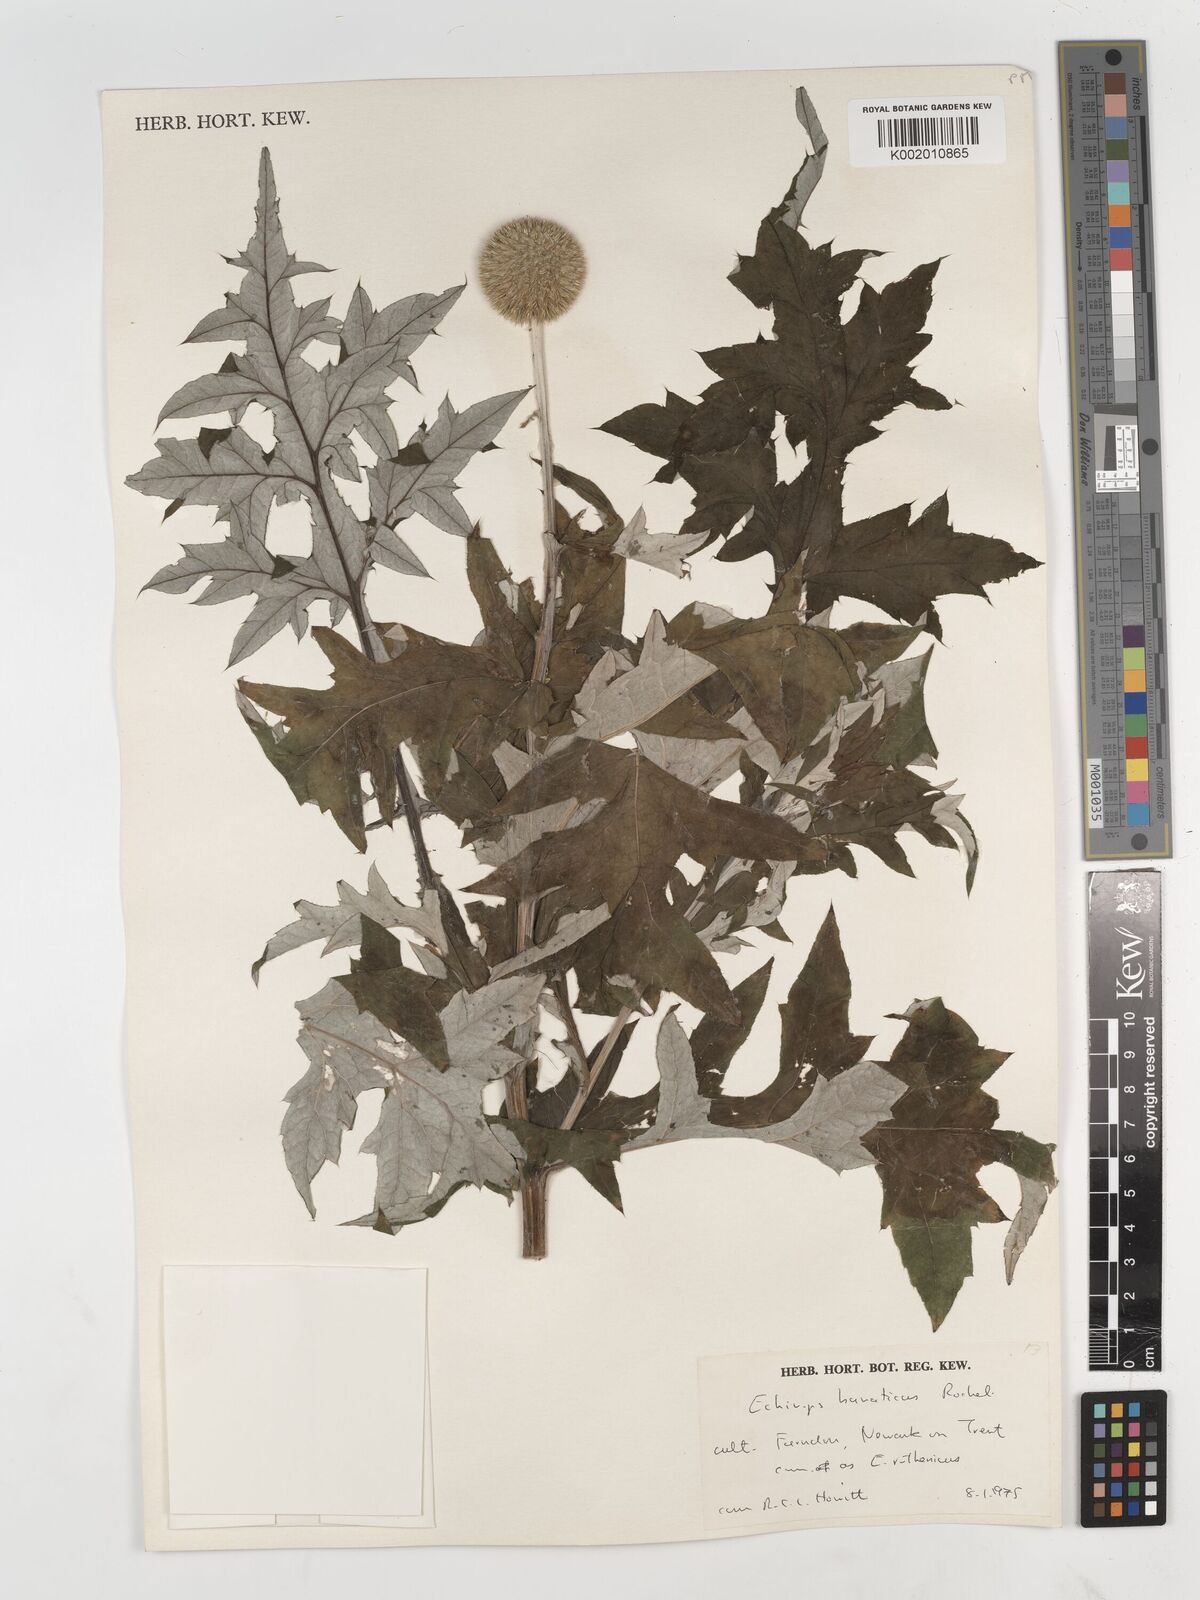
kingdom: Plantae
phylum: Tracheophyta
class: Magnoliopsida
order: Asterales
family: Asteraceae
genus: Echinops
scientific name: Echinops bannaticus
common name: Blue globe-thistle
